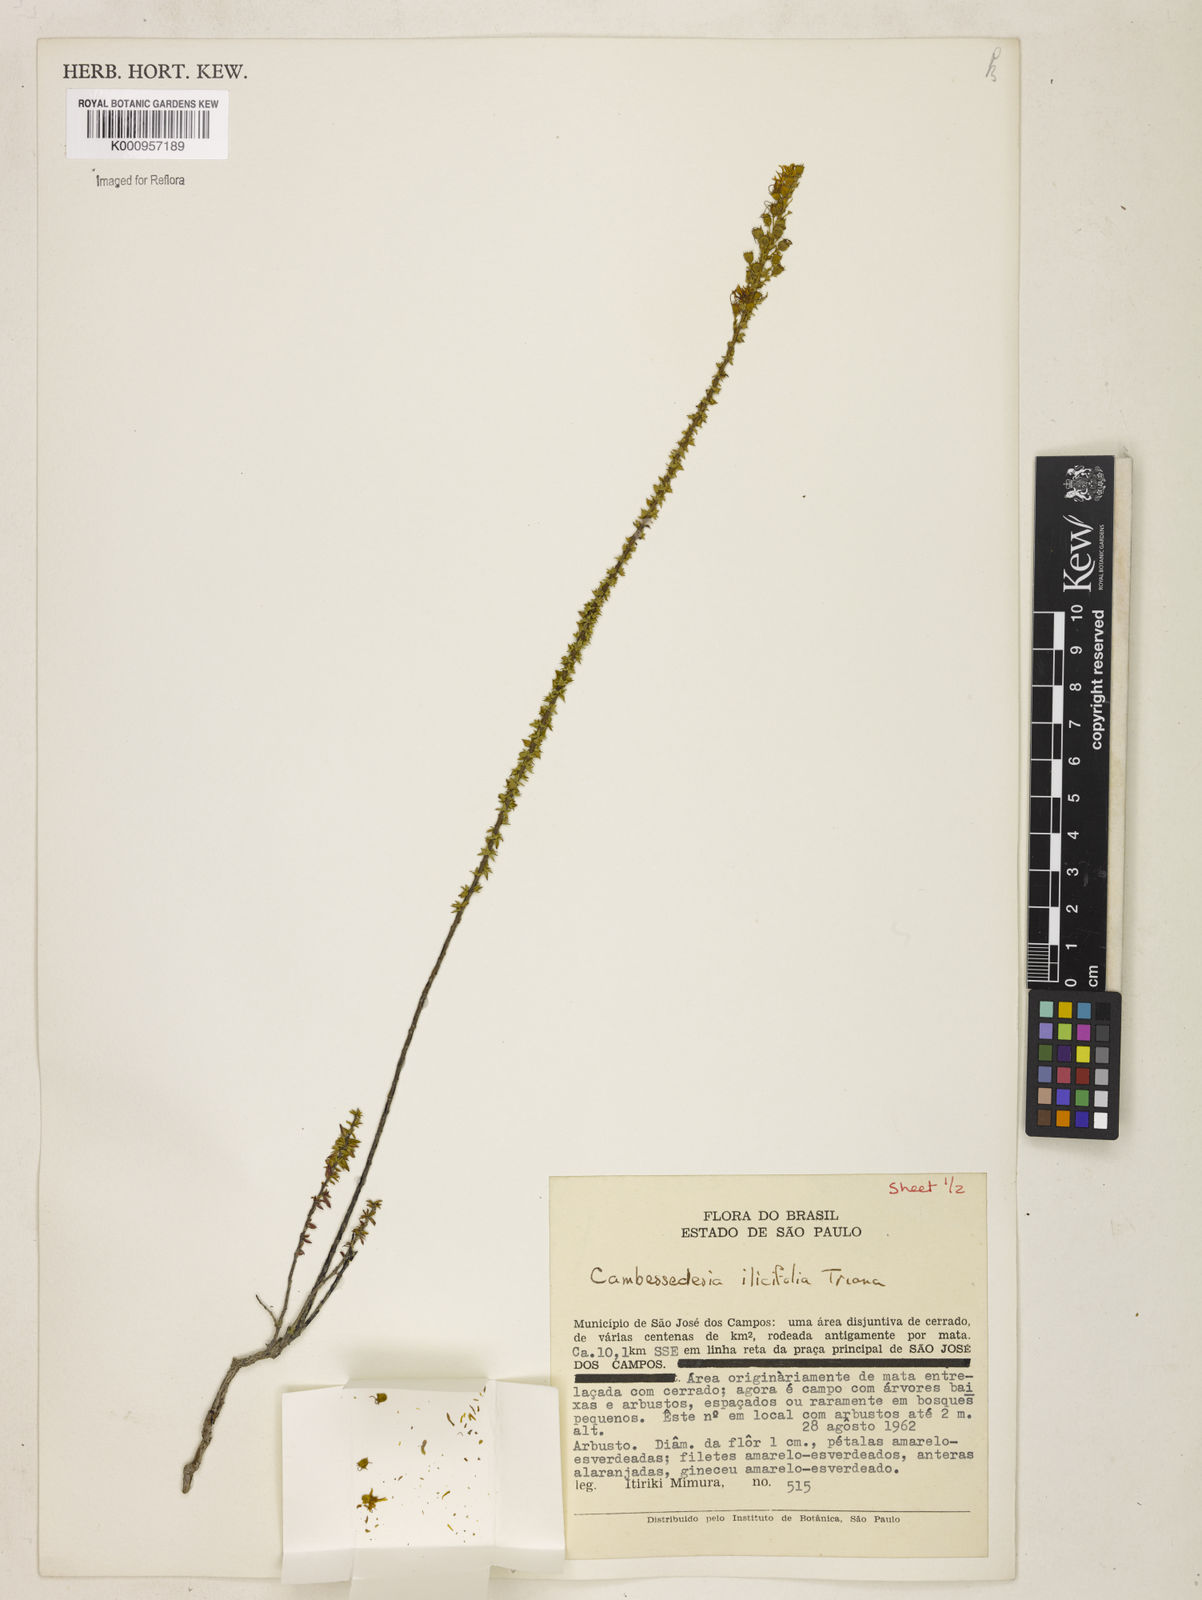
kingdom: Plantae
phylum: Tracheophyta
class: Magnoliopsida
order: Myrtales
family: Melastomataceae
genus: Cambessedesia
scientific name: Cambessedesia espora
